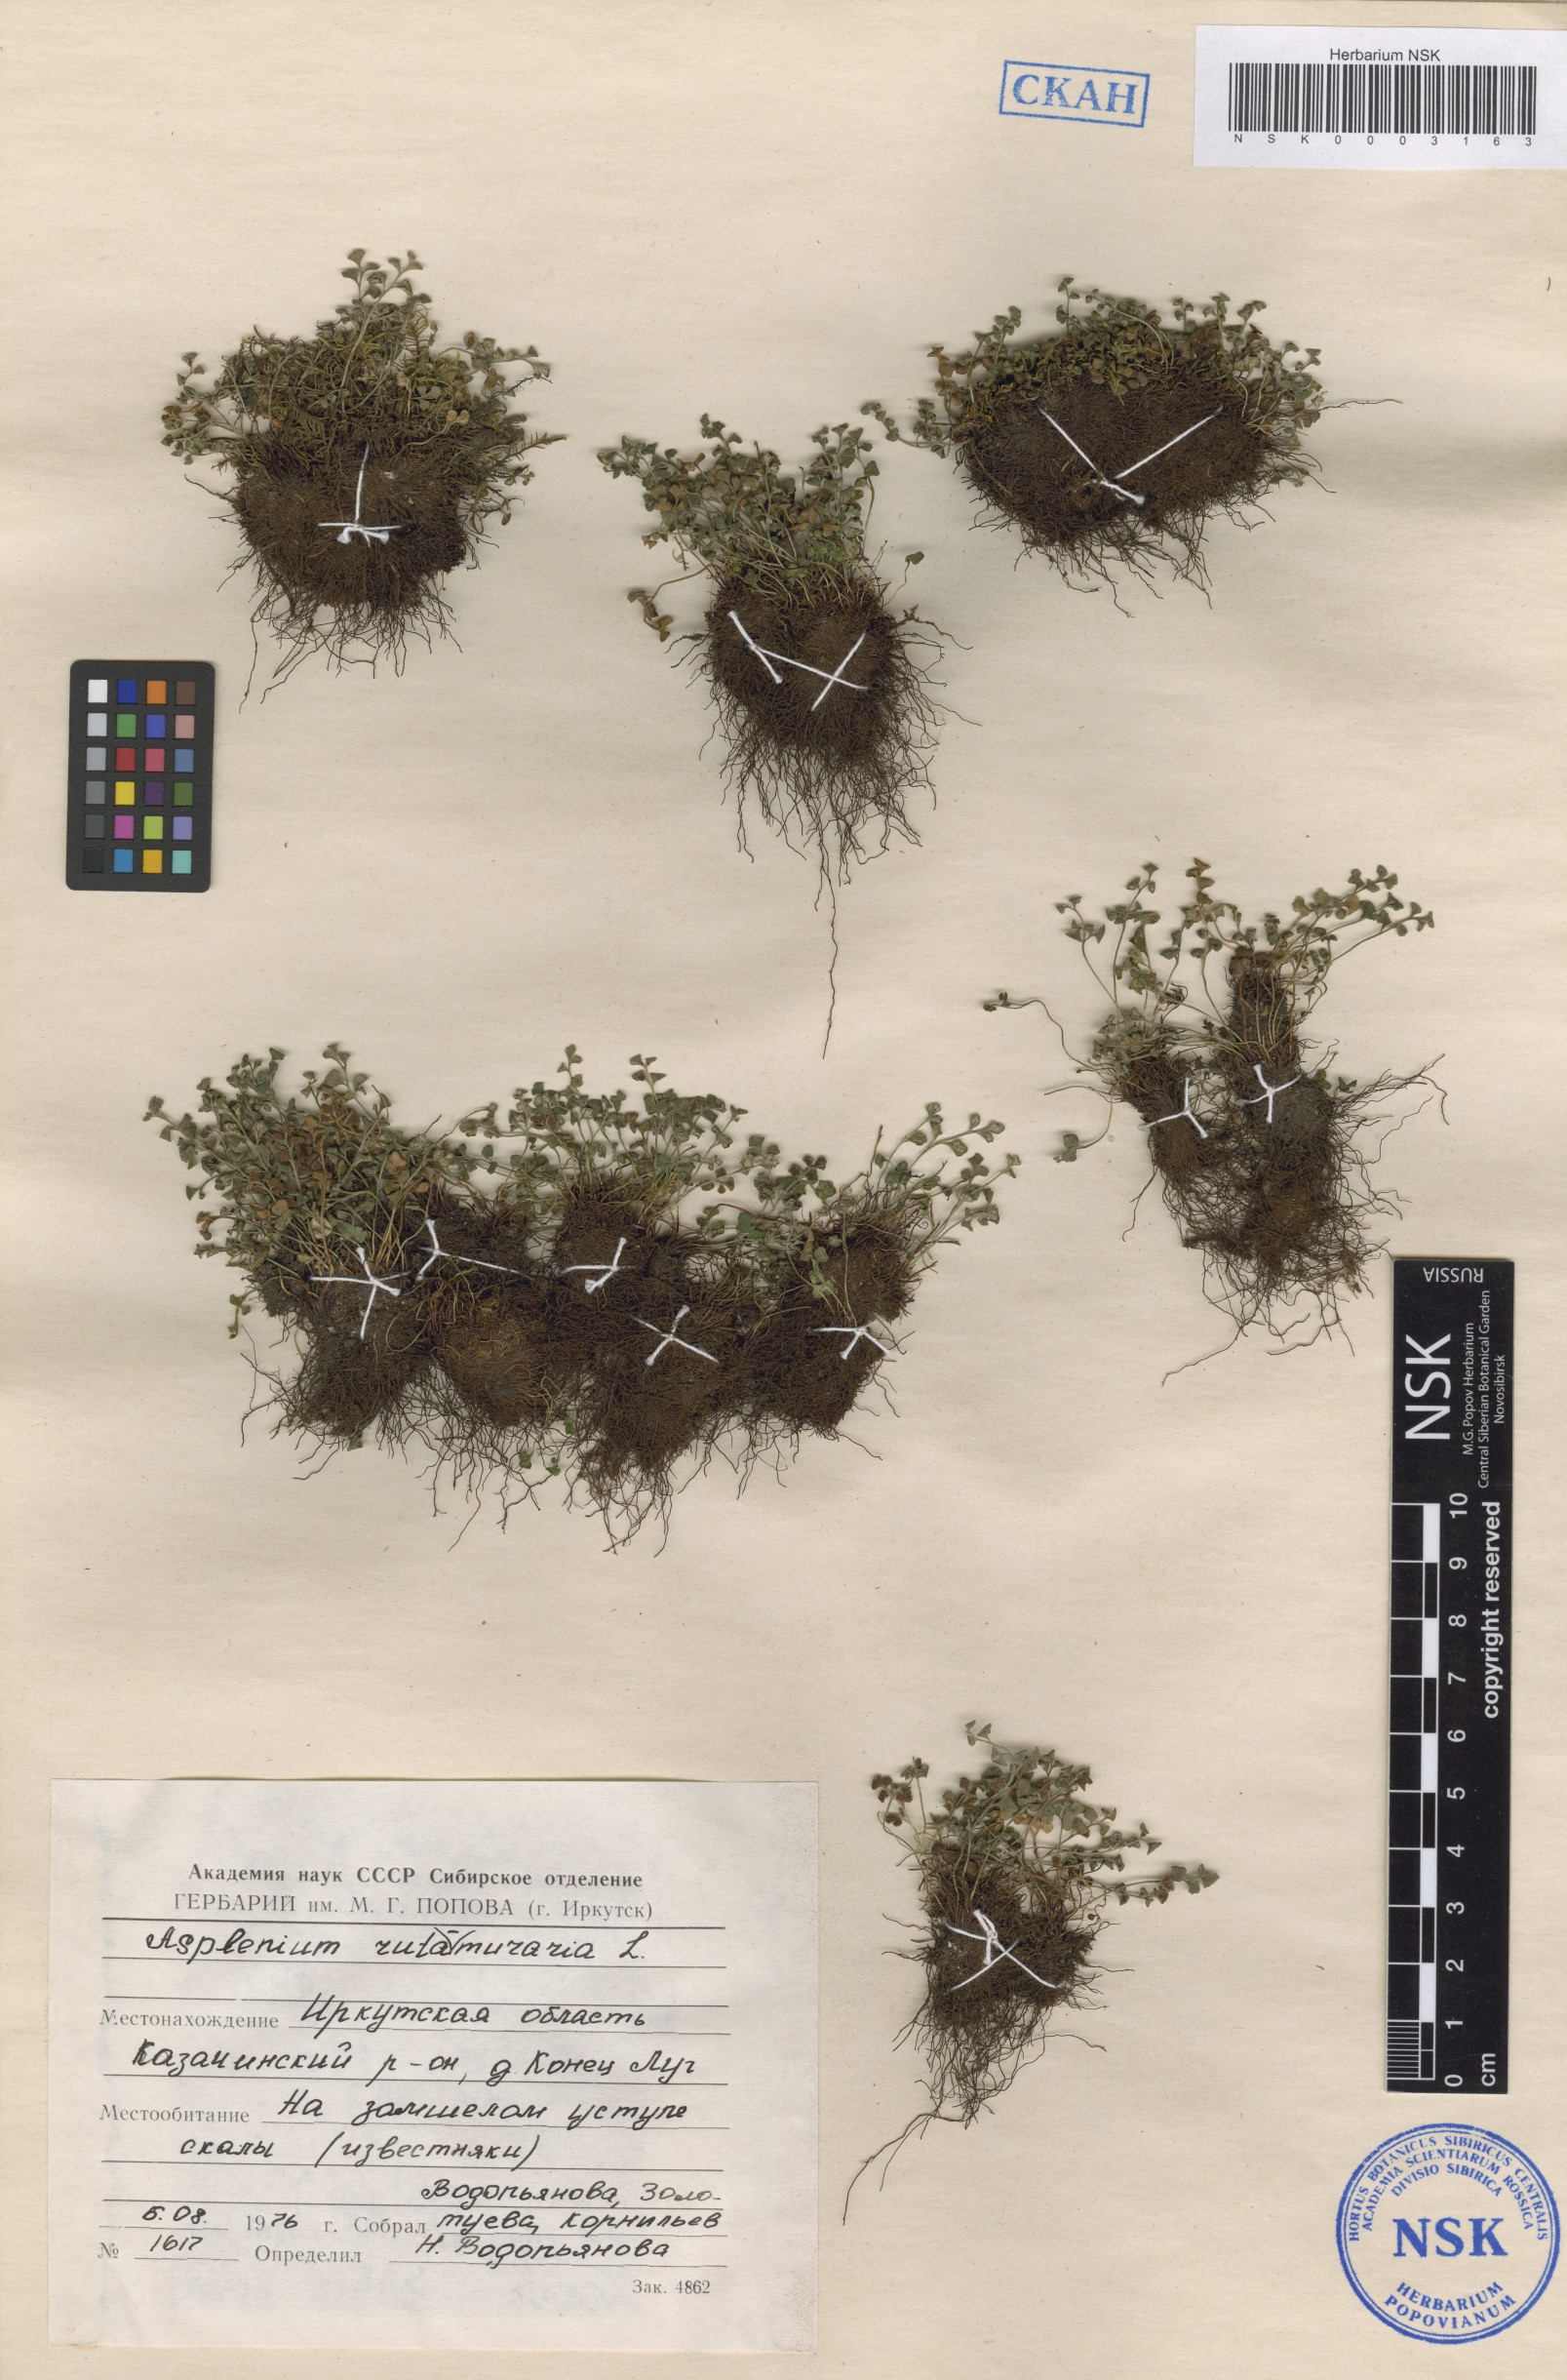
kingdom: Plantae
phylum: Tracheophyta
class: Polypodiopsida
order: Polypodiales
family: Aspleniaceae
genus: Asplenium
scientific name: Asplenium ruta-muraria
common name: Wall-rue
